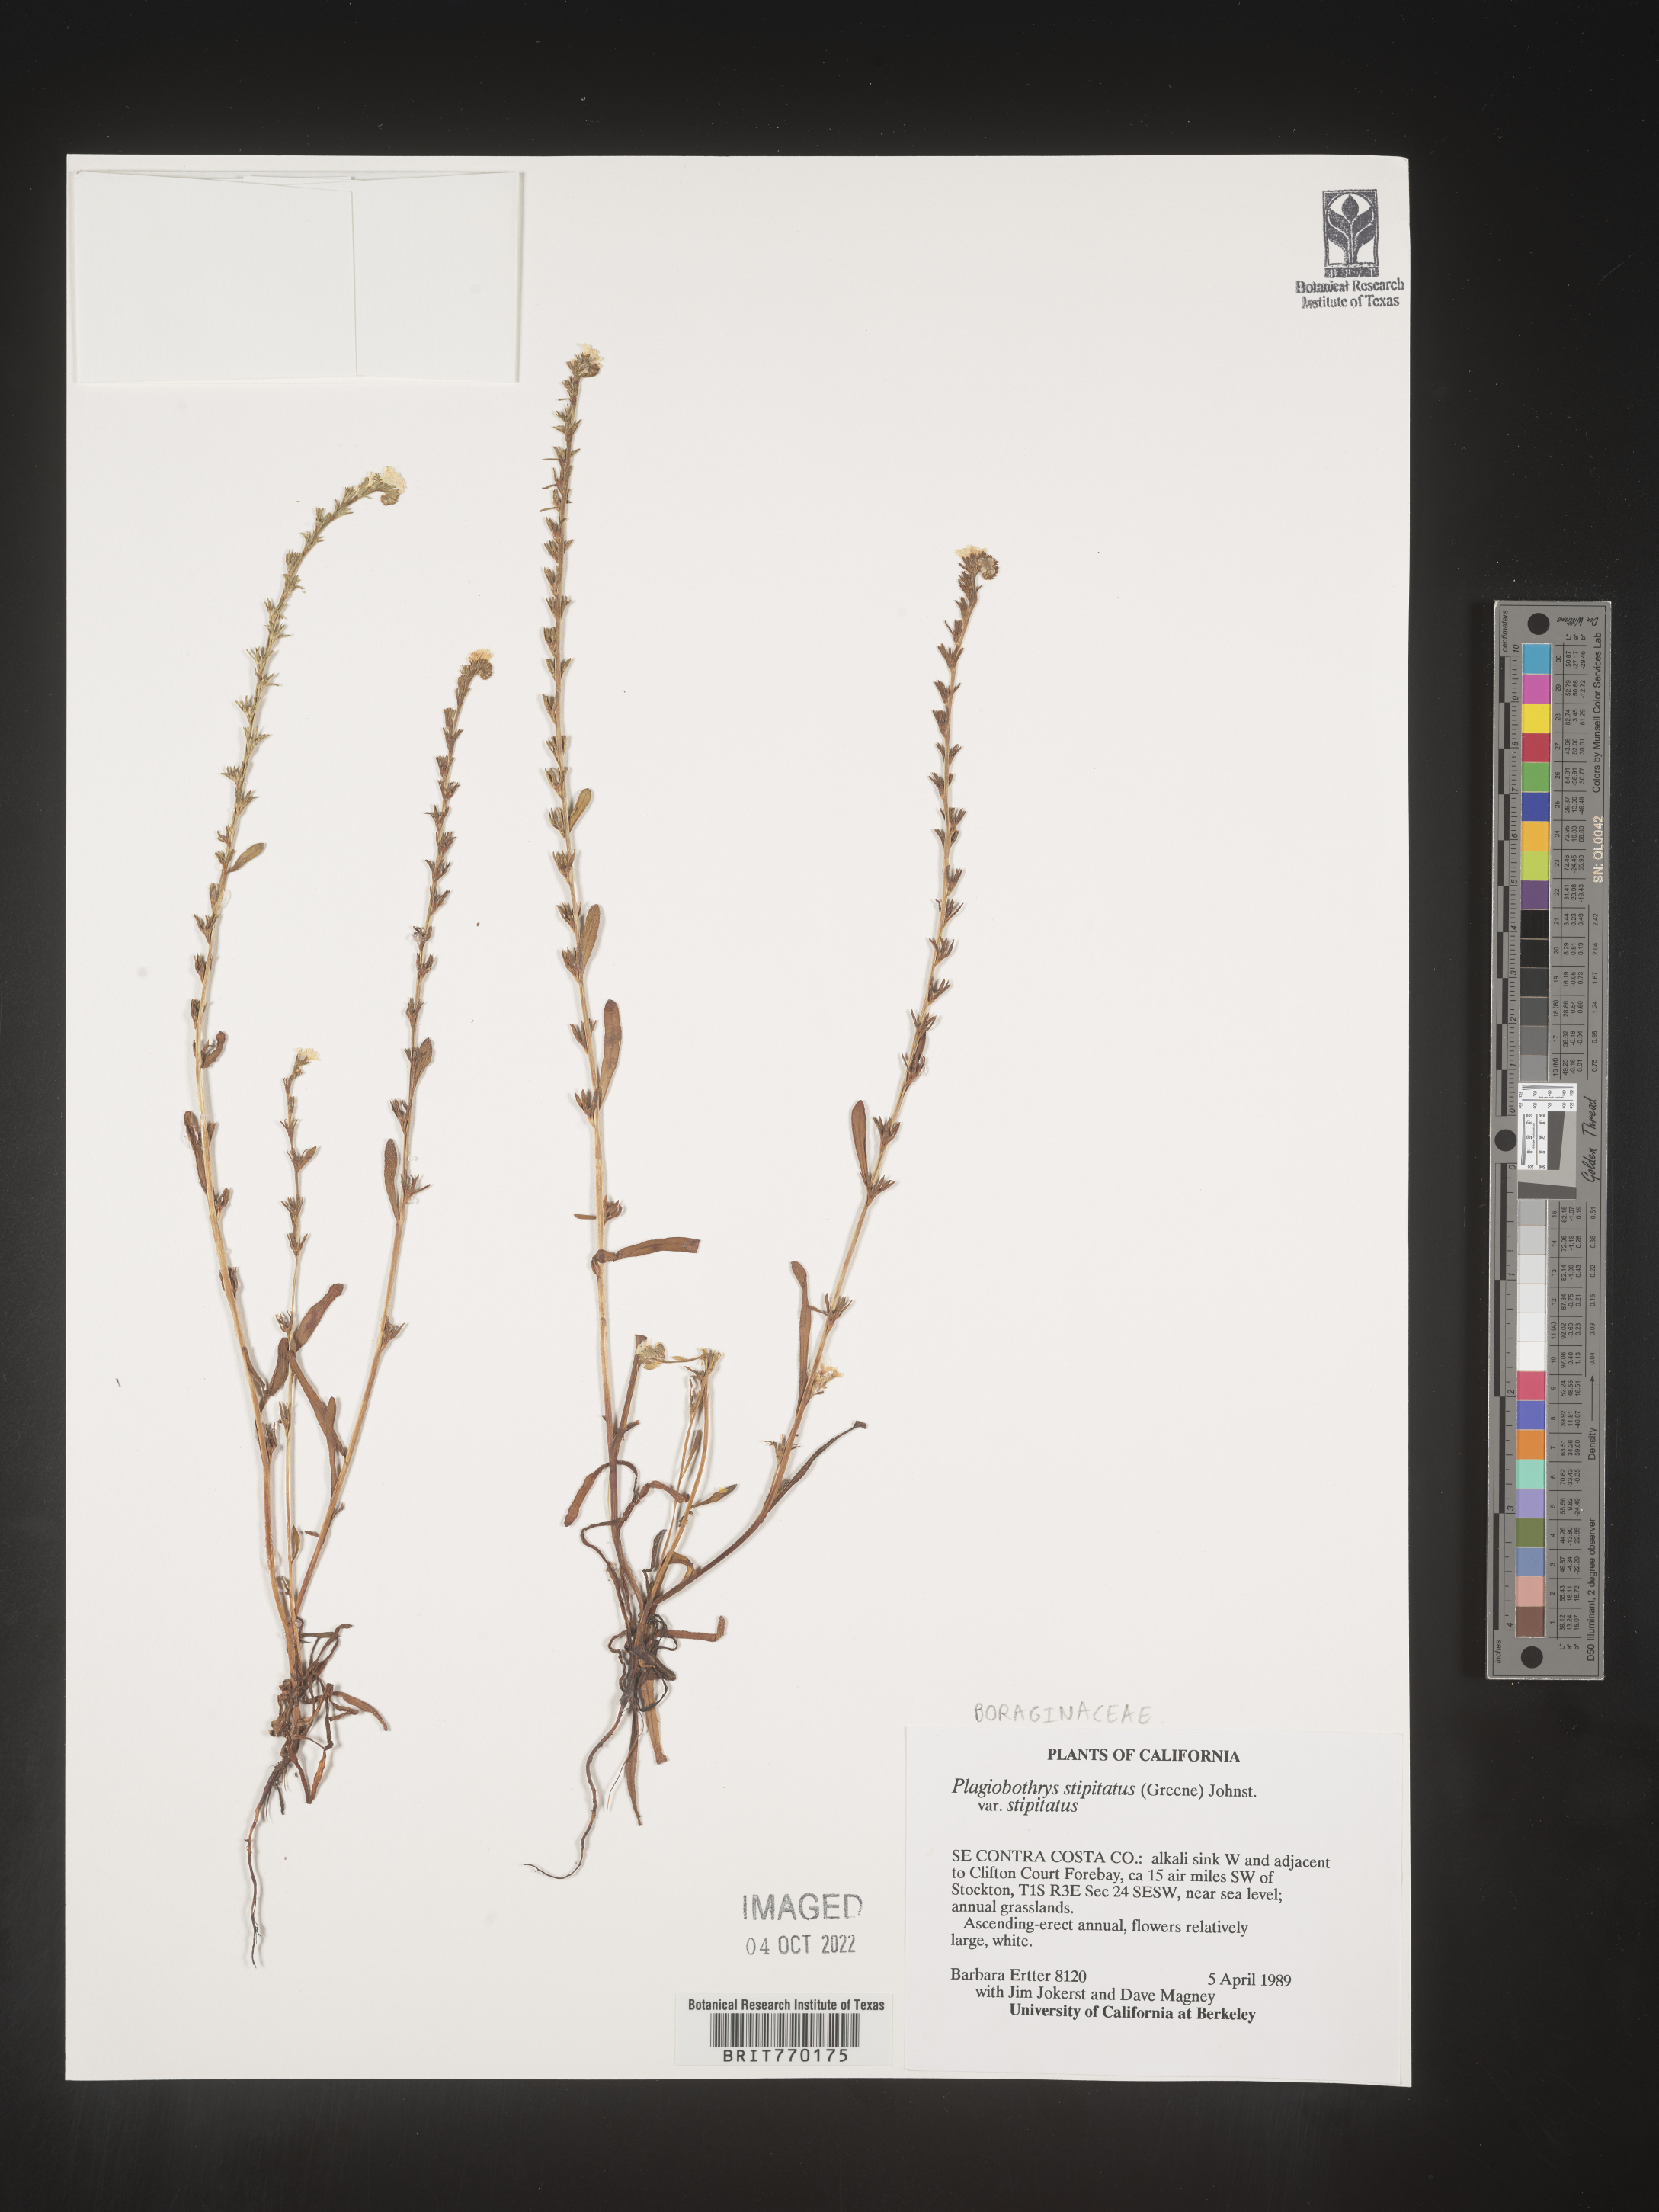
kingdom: Plantae
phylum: Tracheophyta
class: Magnoliopsida
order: Boraginales
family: Boraginaceae
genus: Plagiobothrys
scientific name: Plagiobothrys
